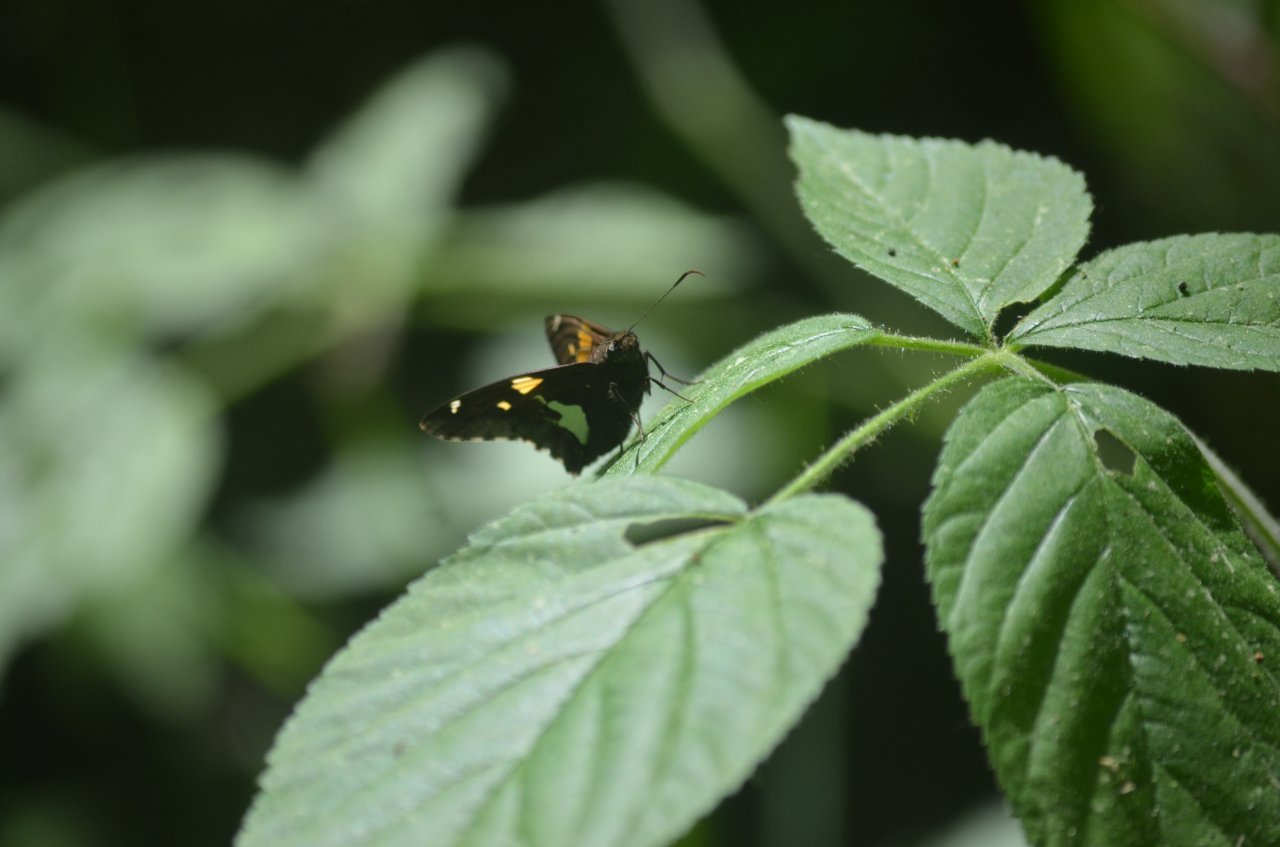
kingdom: Animalia
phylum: Arthropoda
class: Insecta
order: Lepidoptera
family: Hesperiidae
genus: Epargyreus
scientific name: Epargyreus clarus
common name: Silver-spotted Skipper
